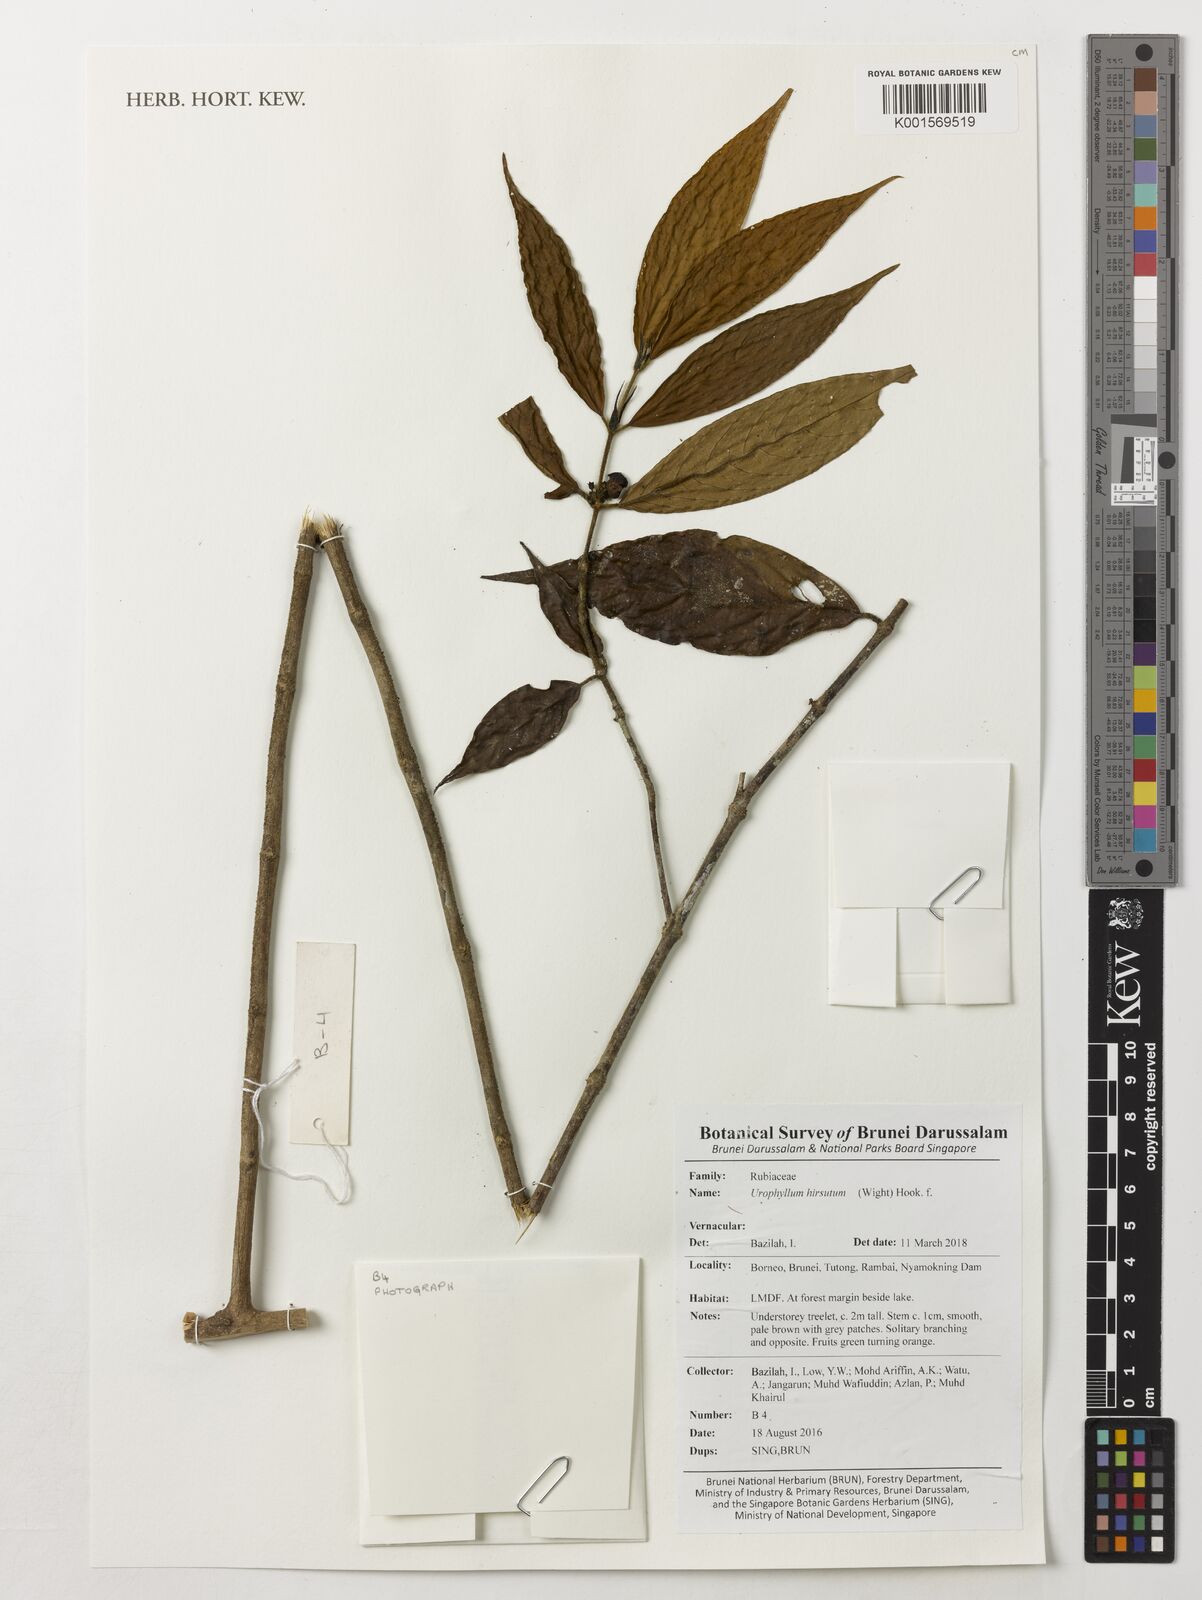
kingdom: Plantae
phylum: Tracheophyta
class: Magnoliopsida
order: Gentianales
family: Rubiaceae
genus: Urophyllum
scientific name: Urophyllum hirsutum
